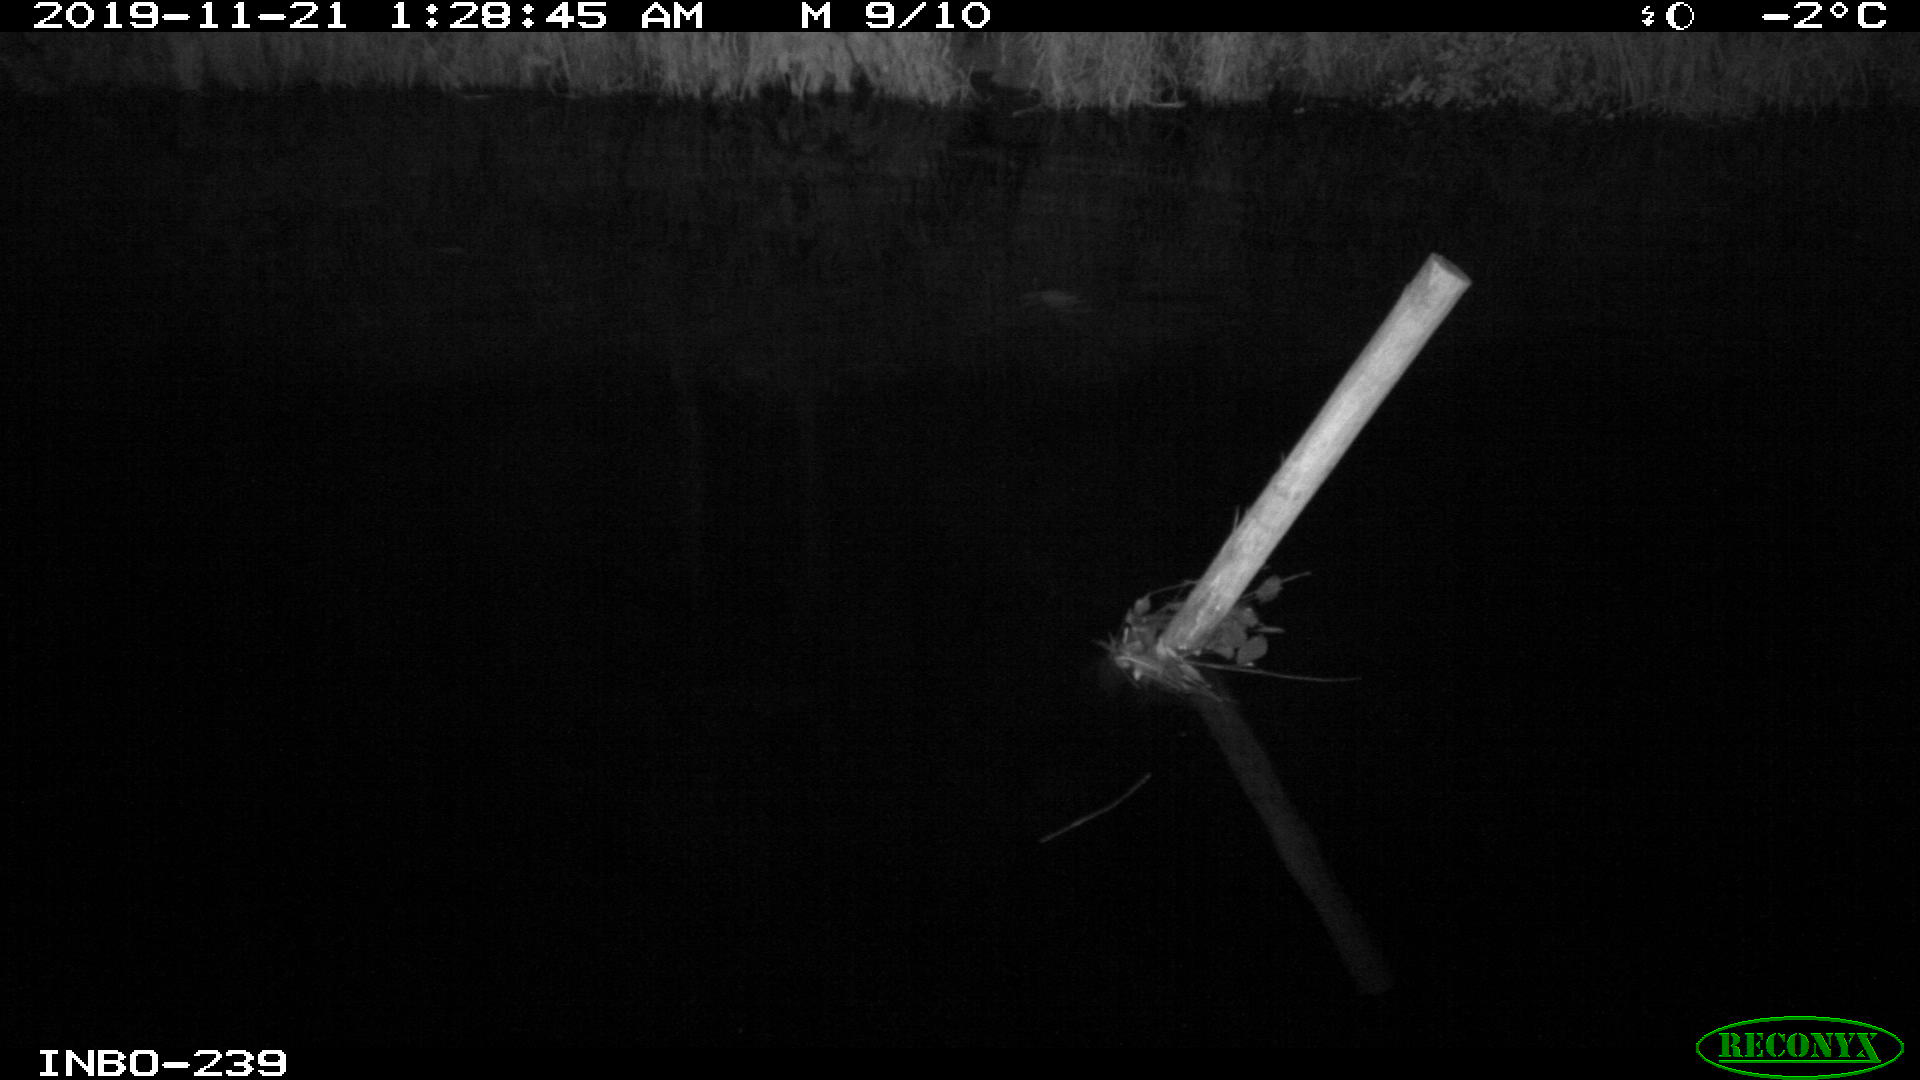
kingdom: Animalia
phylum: Chordata
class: Aves
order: Anseriformes
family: Anatidae
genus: Anas
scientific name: Anas platyrhynchos
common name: Mallard
